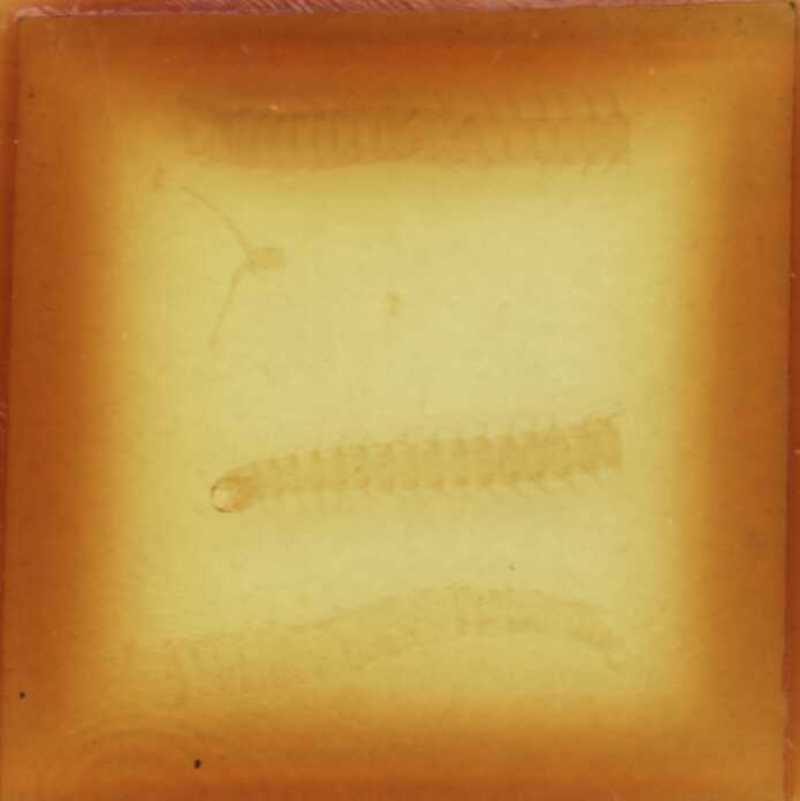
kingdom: Animalia
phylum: Arthropoda
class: Chilopoda
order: Geophilomorpha
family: Geophilidae
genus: Stenotaenia
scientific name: Stenotaenia sorrentina
